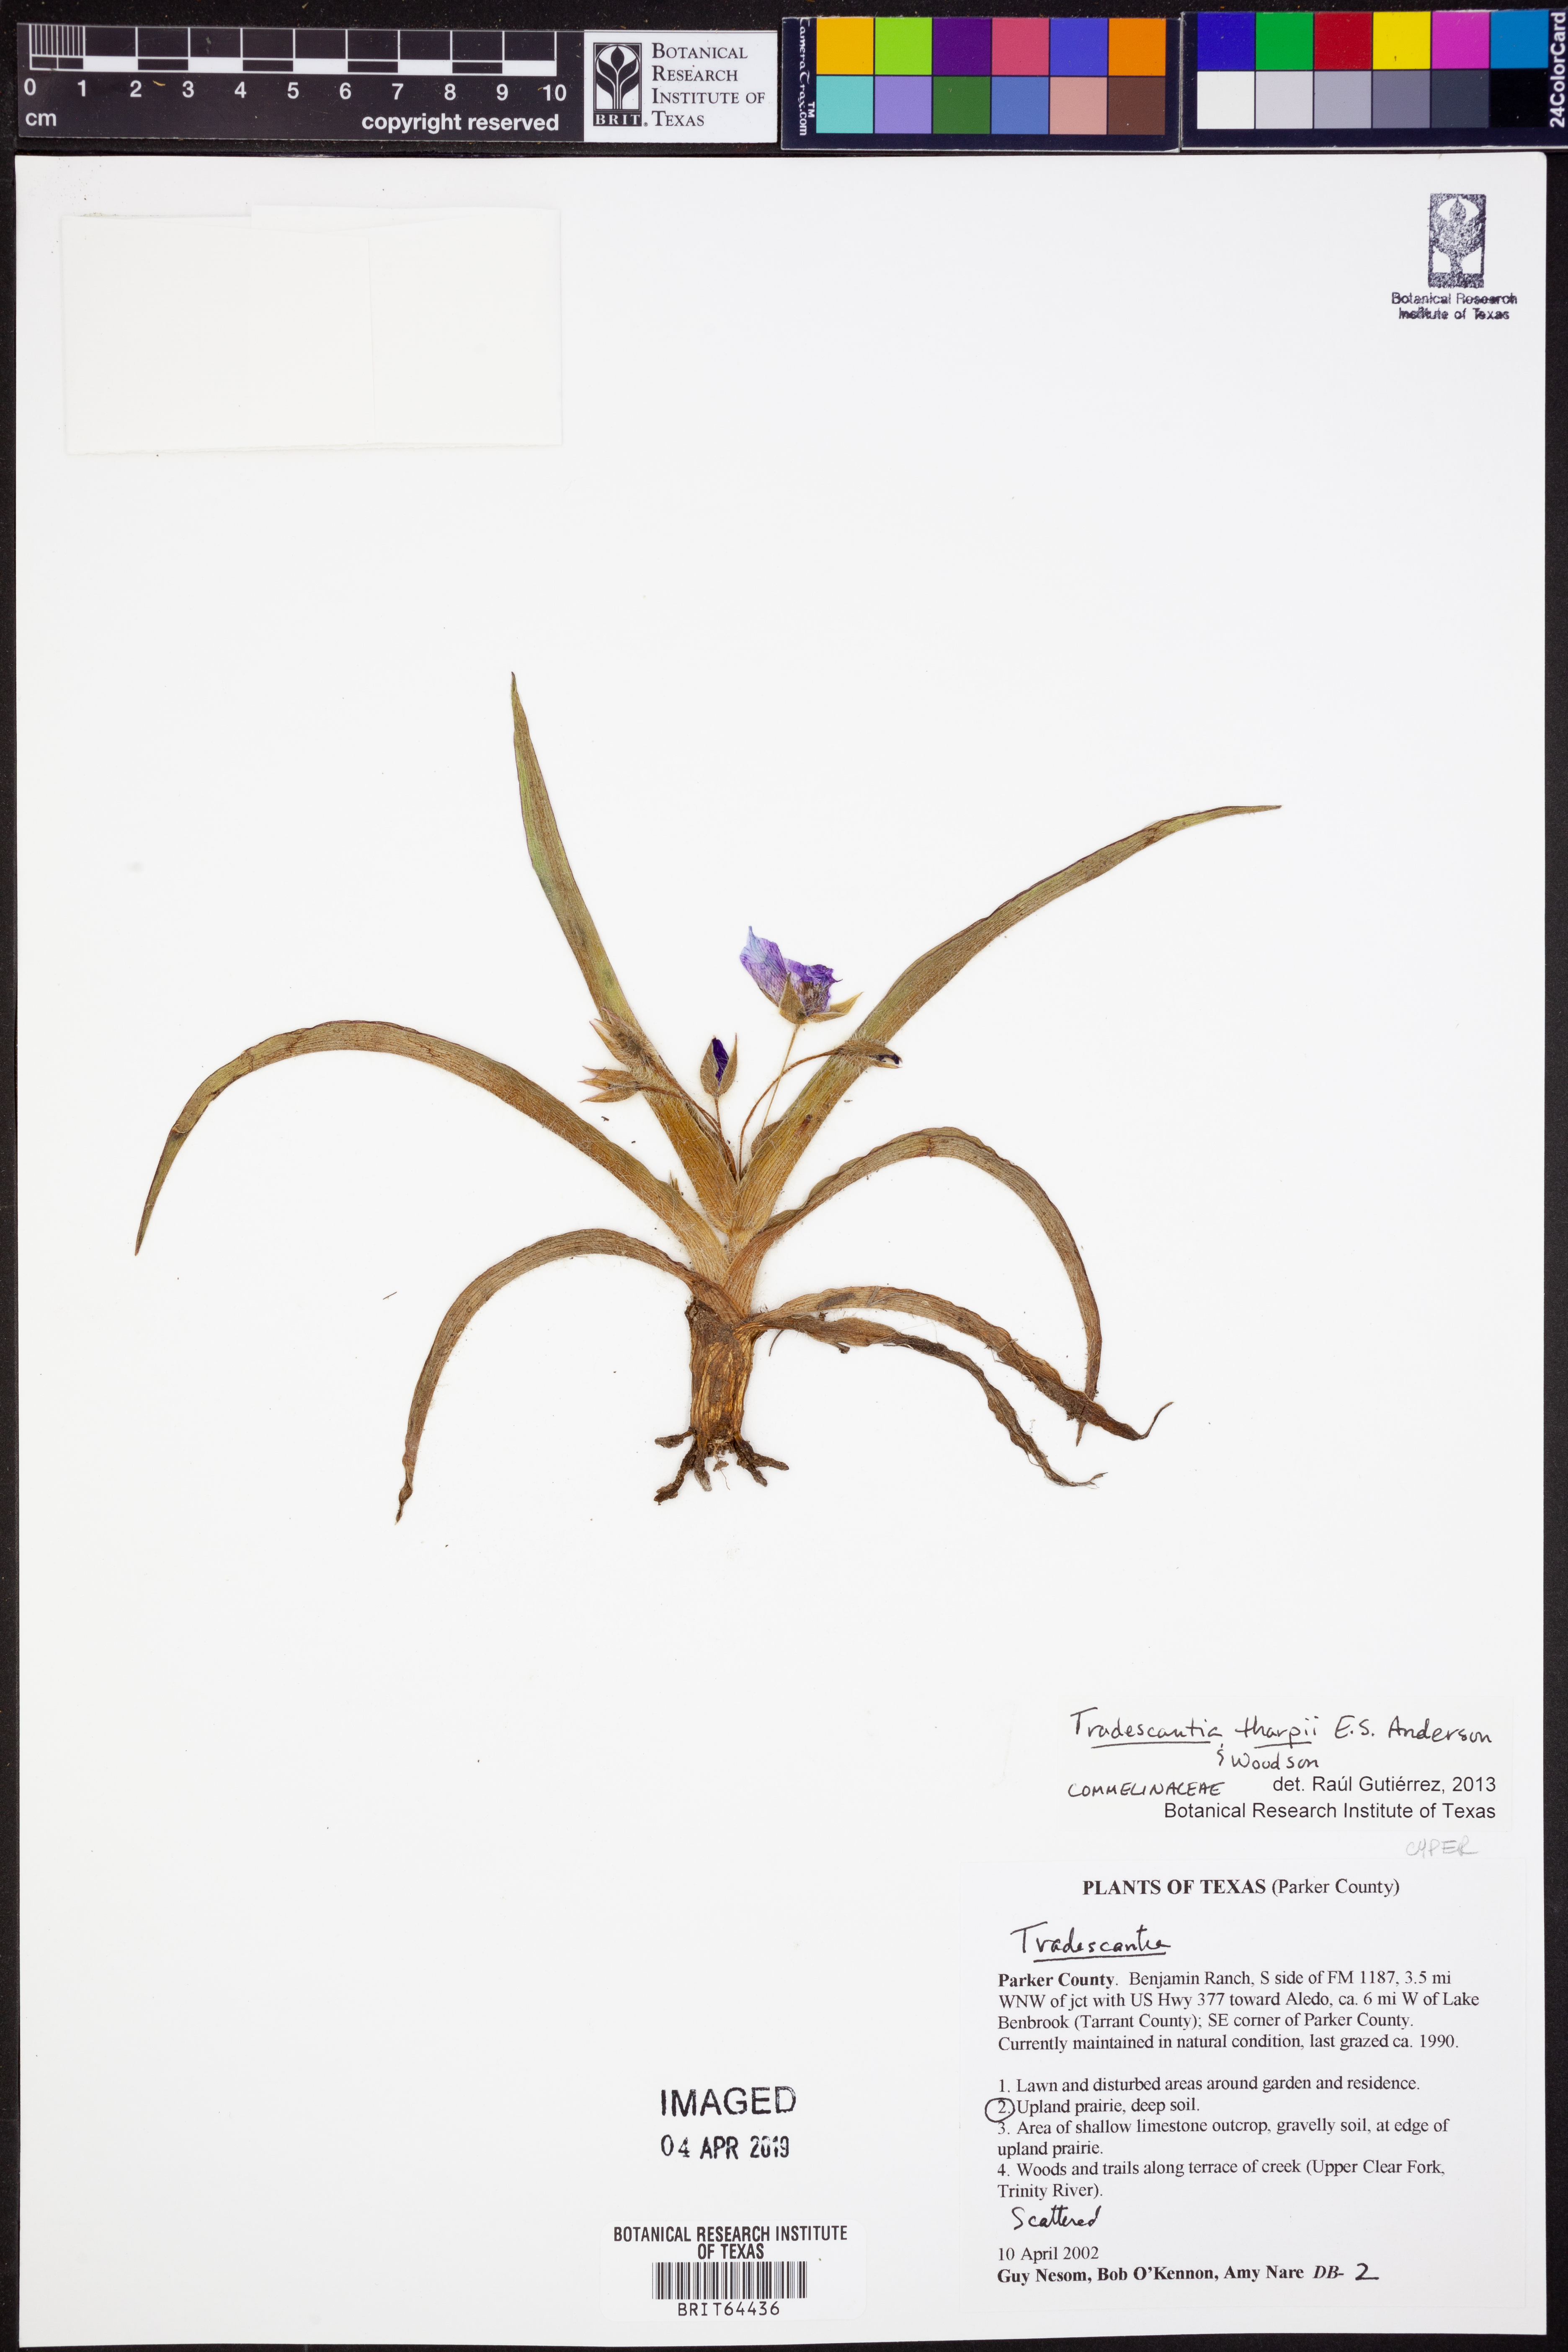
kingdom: Plantae
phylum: Tracheophyta
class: Liliopsida
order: Commelinales
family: Commelinaceae
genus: Tradescantia
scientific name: Tradescantia tharpii
